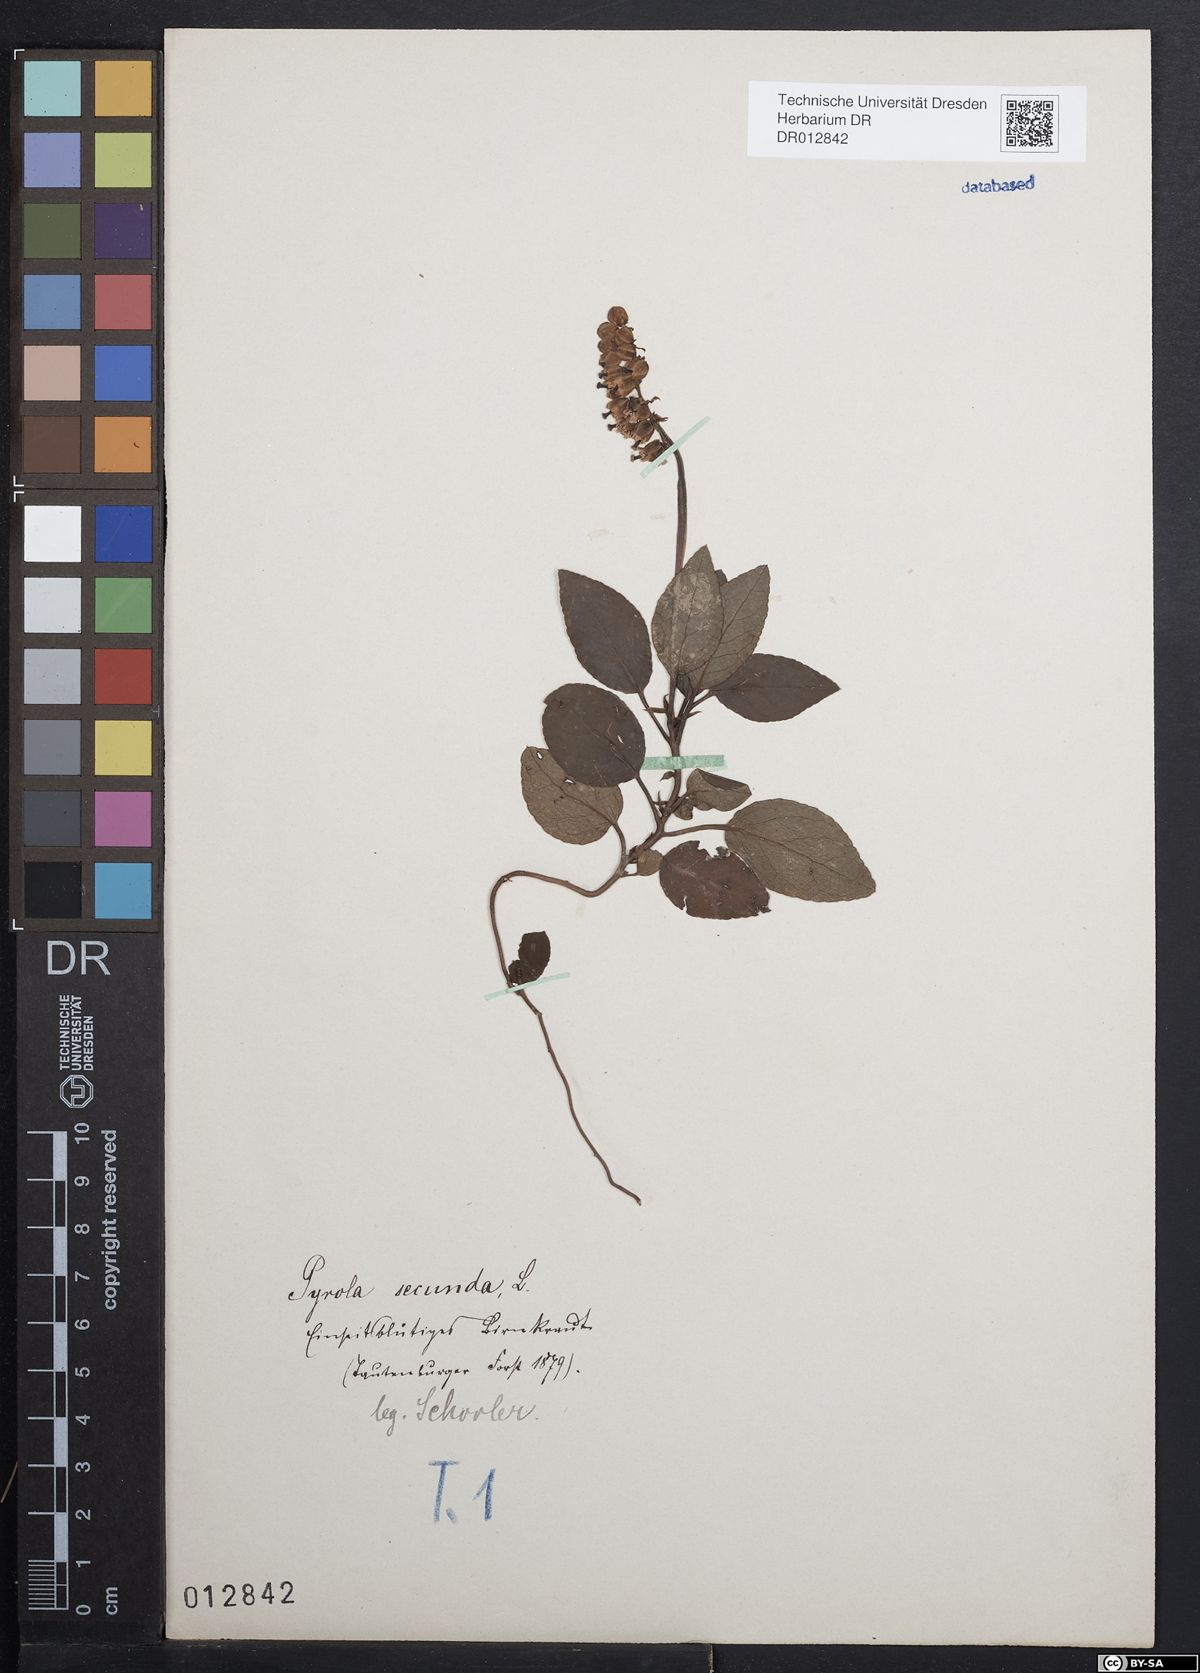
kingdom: Plantae
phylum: Tracheophyta
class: Magnoliopsida
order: Ericales
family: Ericaceae
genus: Orthilia
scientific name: Orthilia secunda
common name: One-sided orthilia
